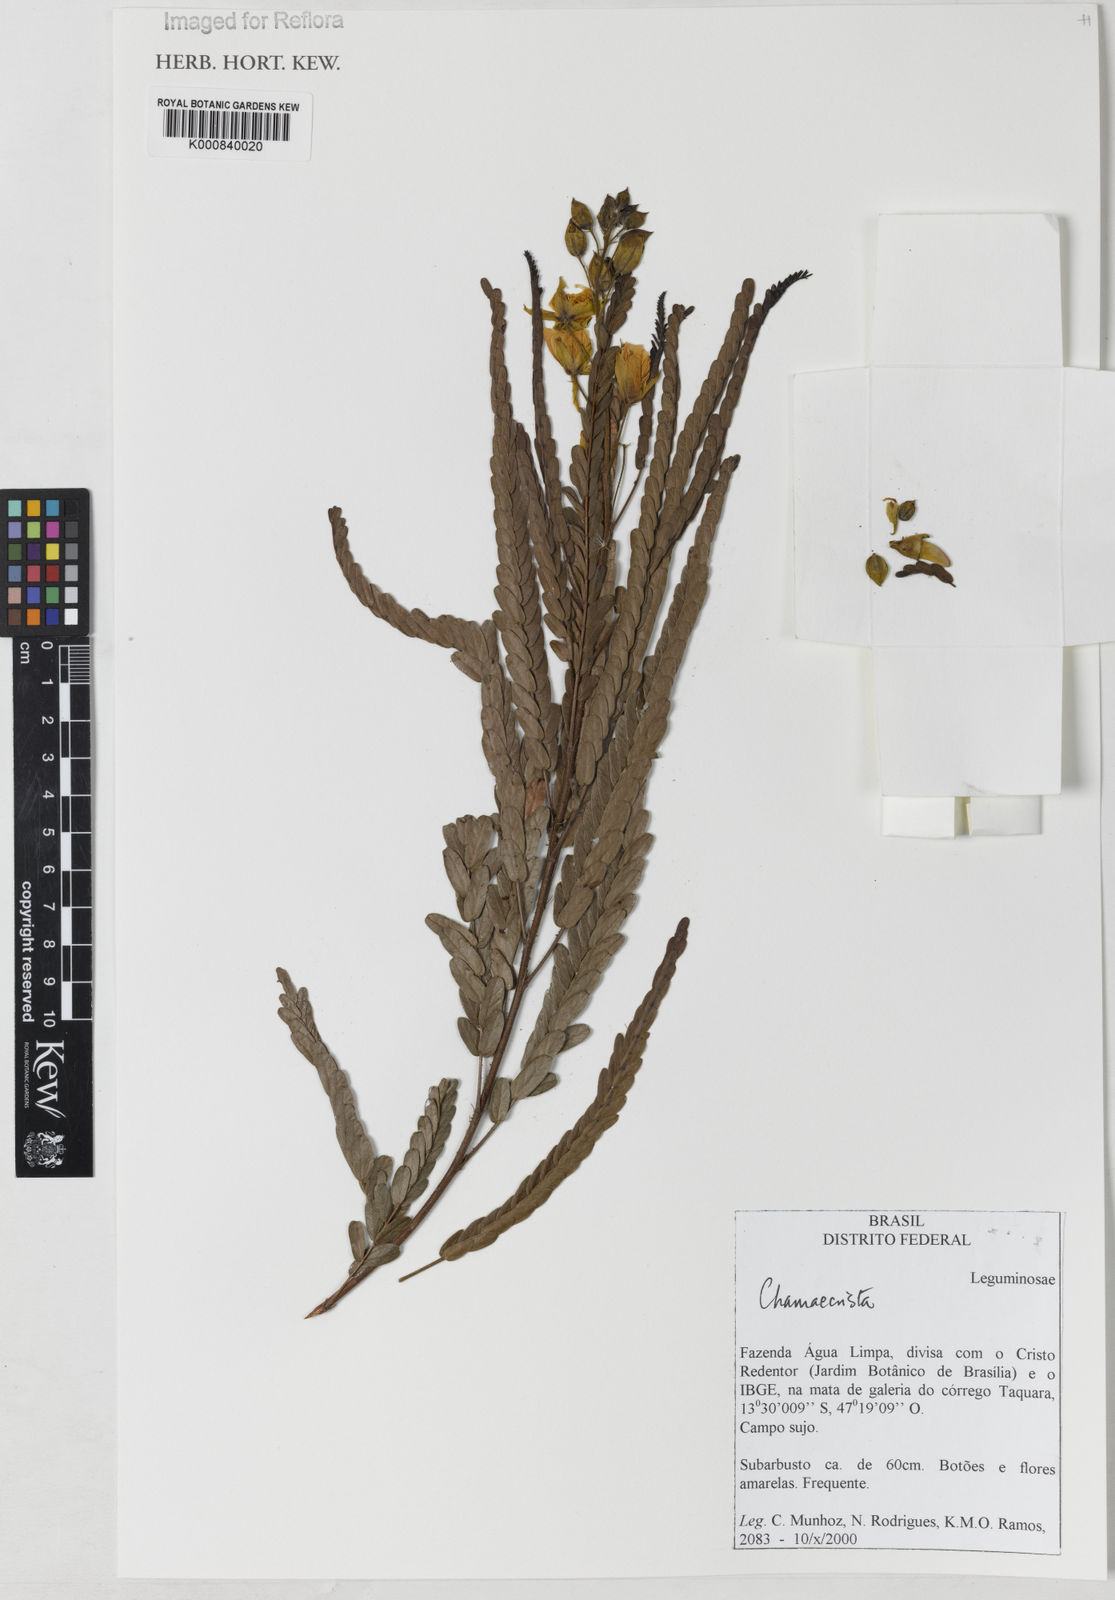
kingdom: Plantae
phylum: Tracheophyta
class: Magnoliopsida
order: Fabales
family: Fabaceae
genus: Chamaecrista
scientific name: Chamaecrista pohliana
